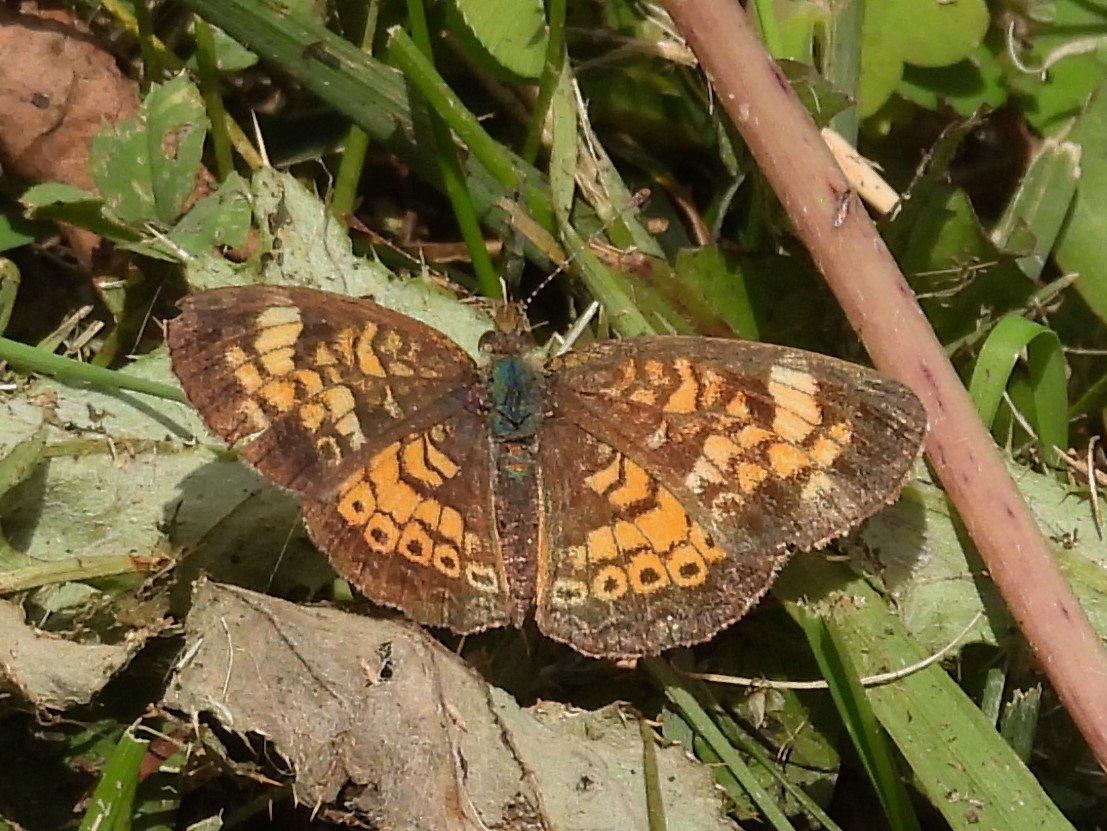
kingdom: Animalia
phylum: Arthropoda
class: Insecta
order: Lepidoptera
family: Nymphalidae
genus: Phyciodes
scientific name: Phyciodes tharos
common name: Northern Crescent
